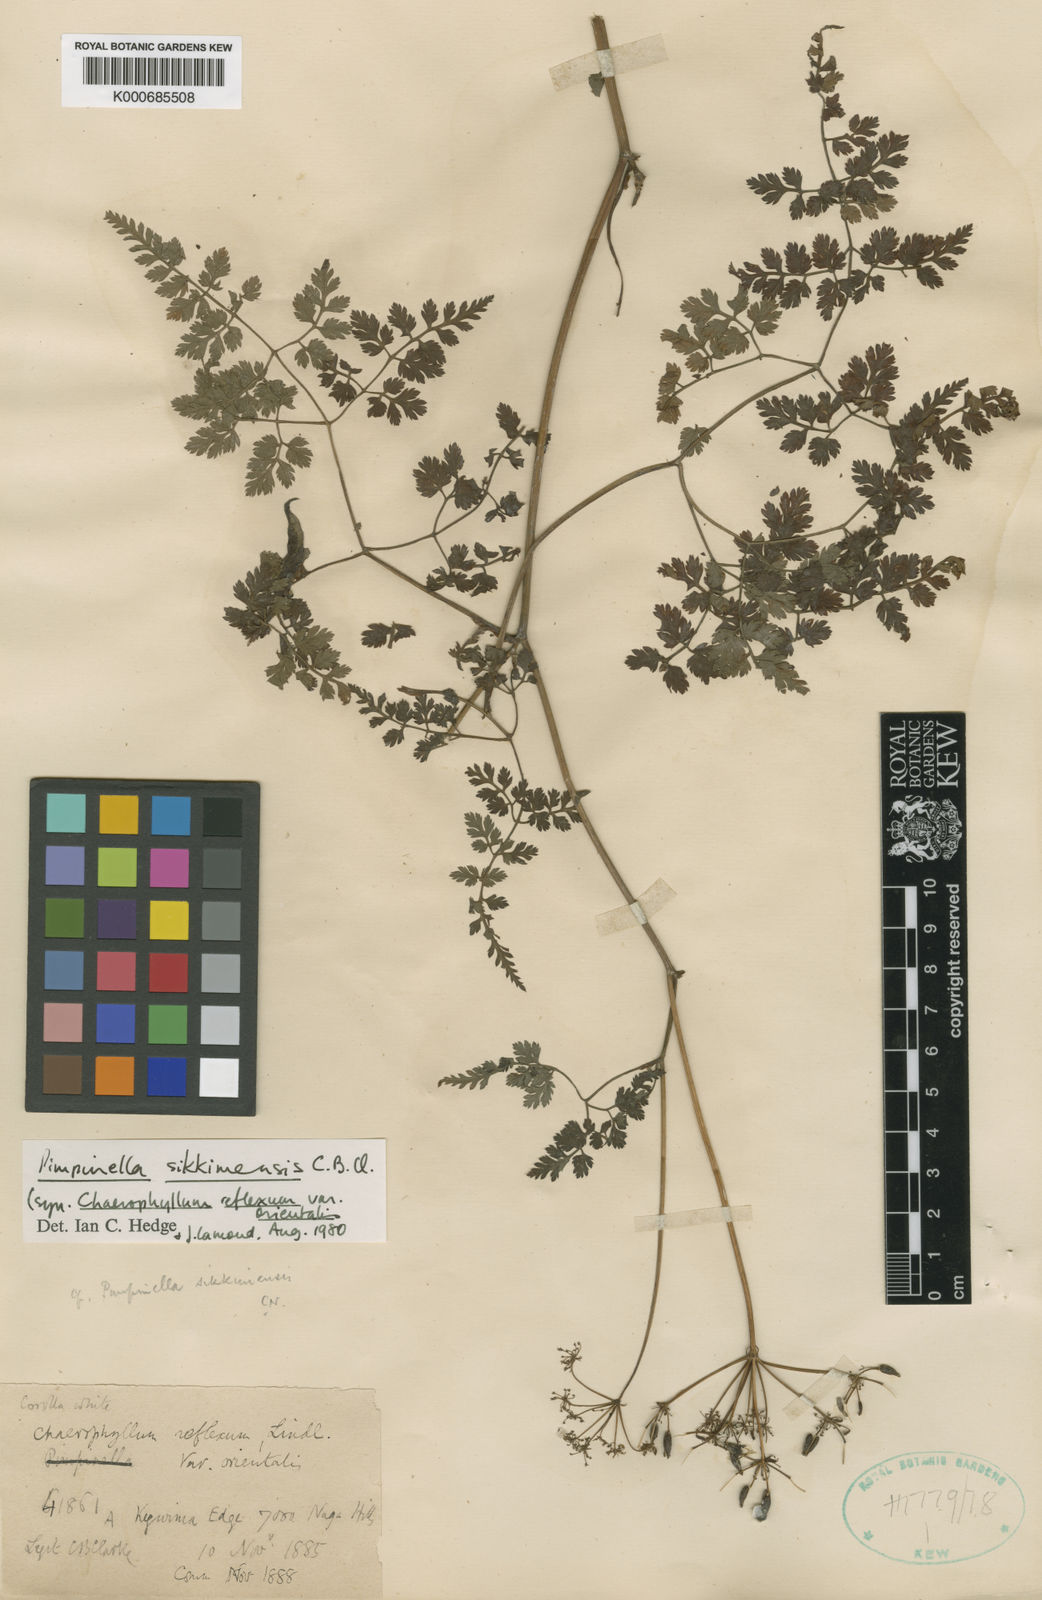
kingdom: Plantae
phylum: Tracheophyta
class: Magnoliopsida
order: Apiales
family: Apiaceae
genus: Pimpinella
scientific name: Pimpinella sikkimensis
